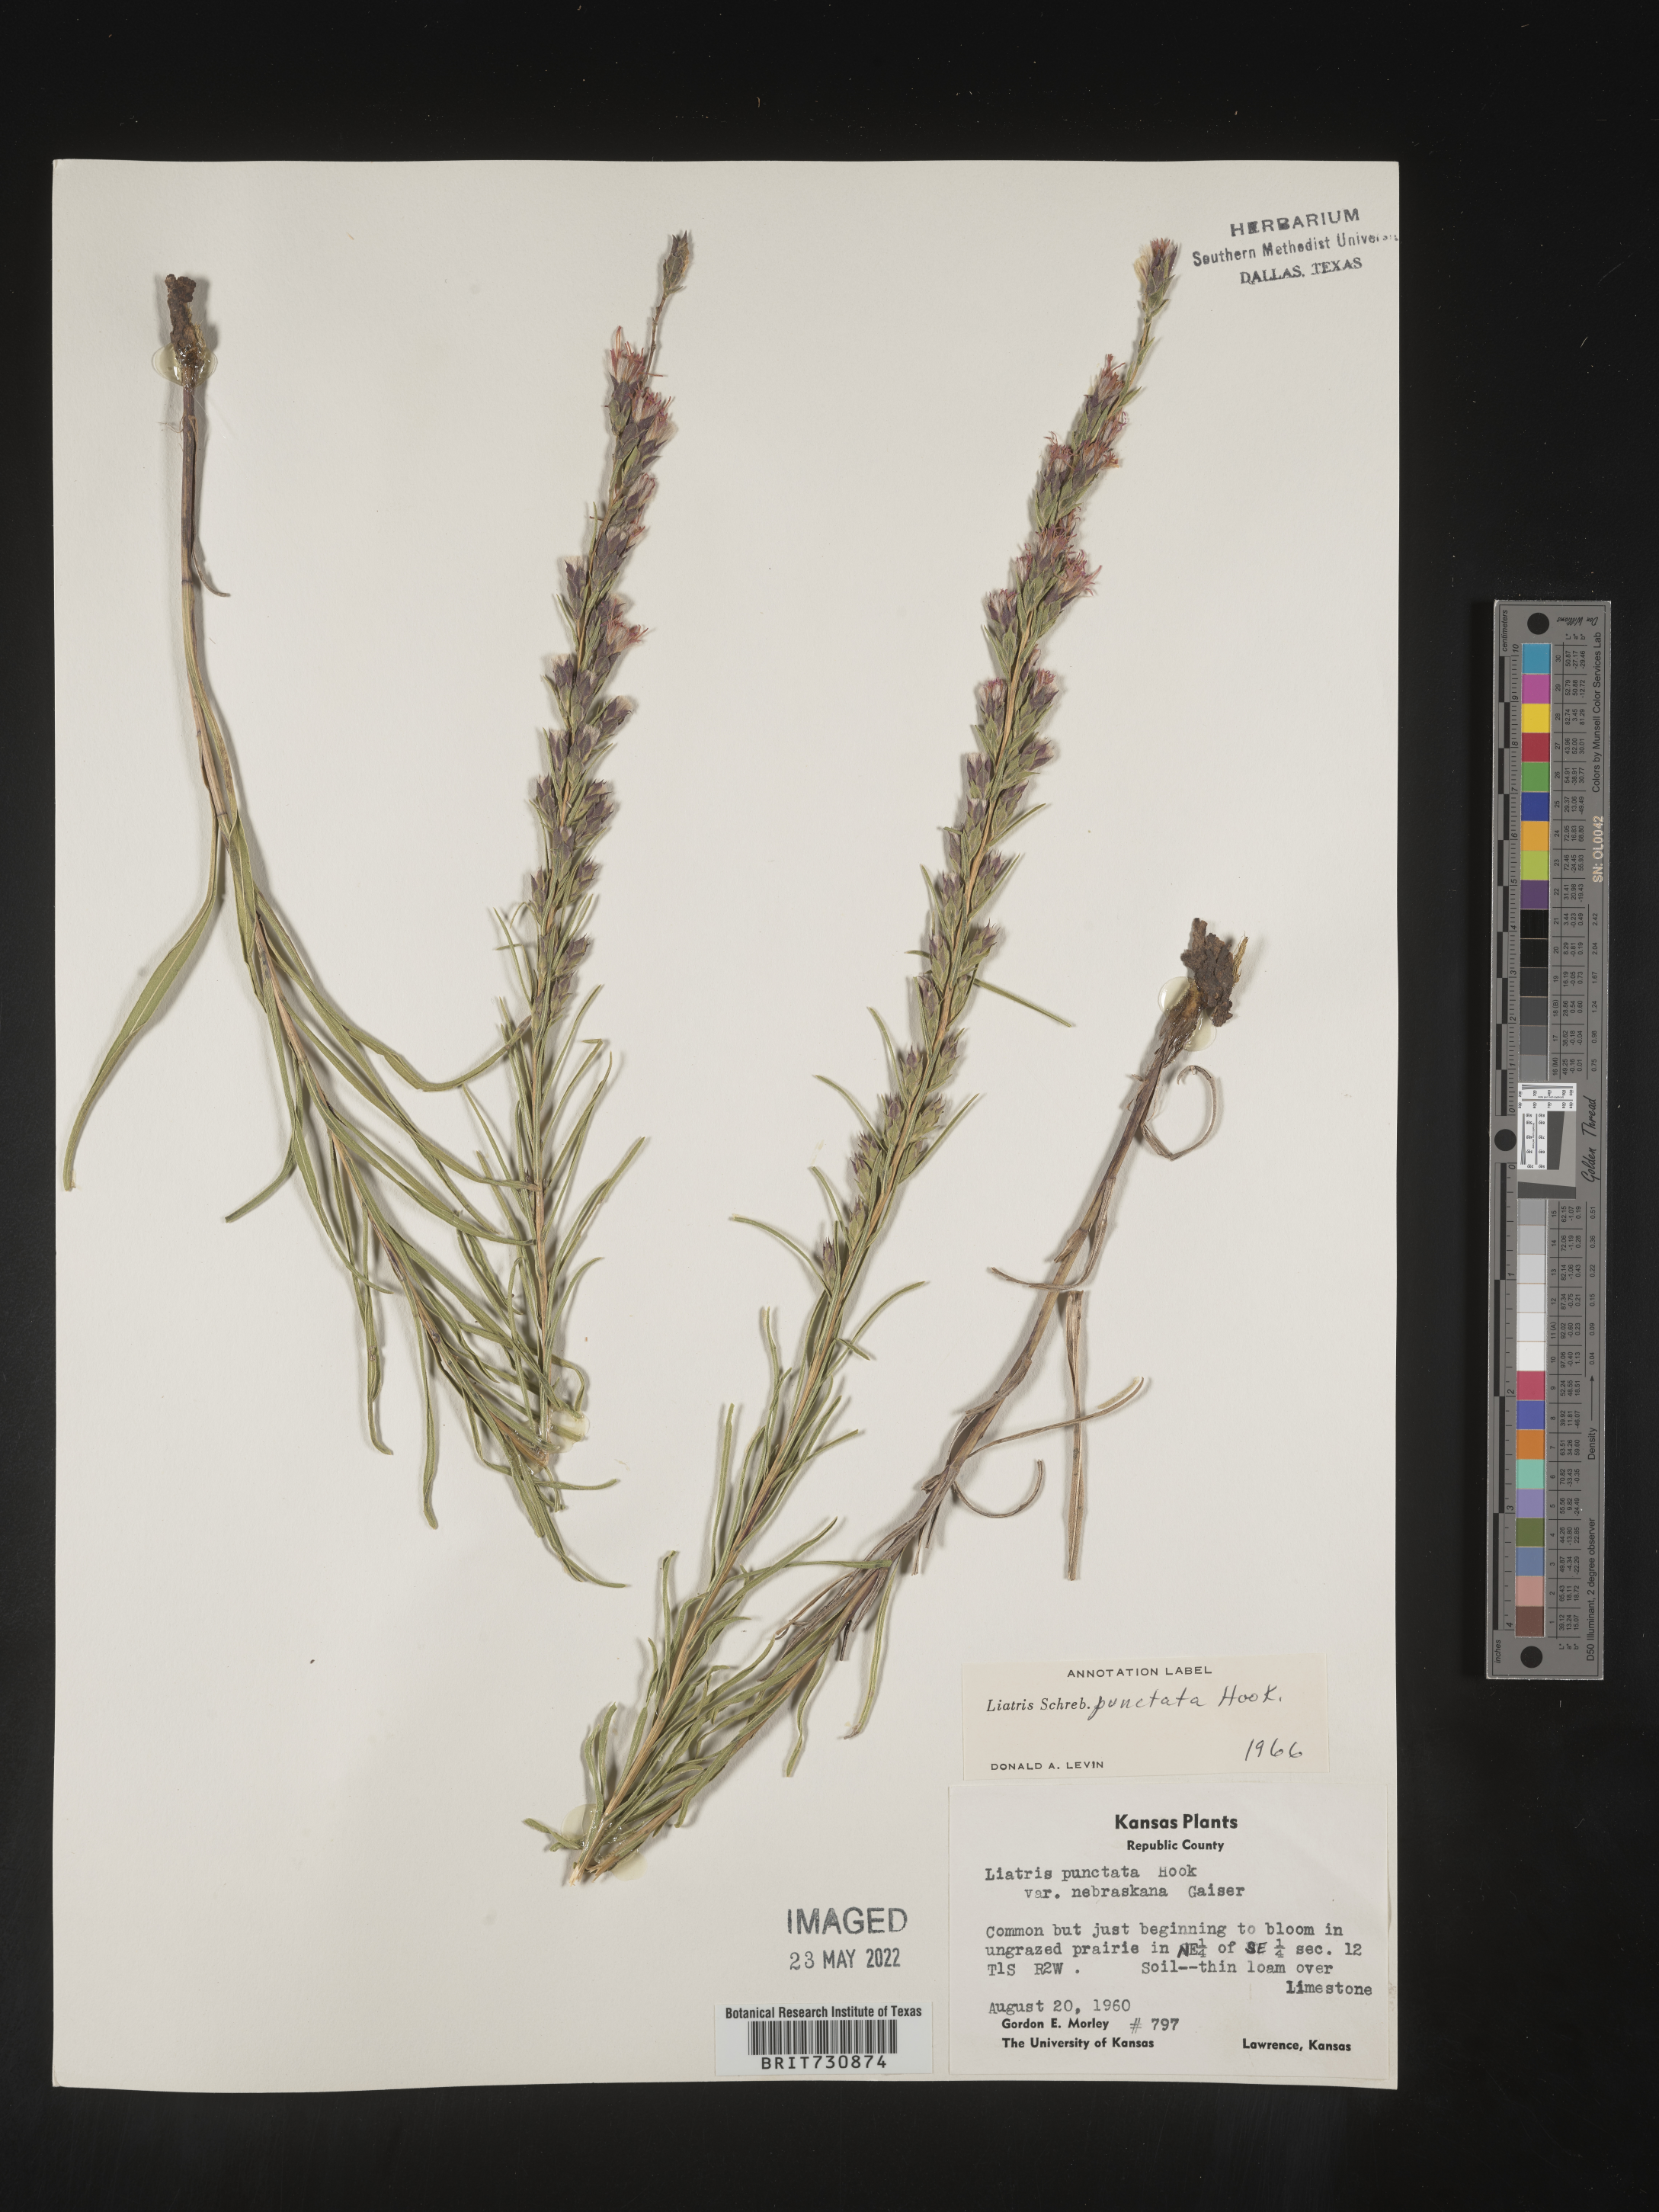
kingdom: Plantae
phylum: Tracheophyta
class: Magnoliopsida
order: Asterales
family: Asteraceae
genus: Liatris
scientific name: Liatris punctata
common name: Dotted gayfeather
